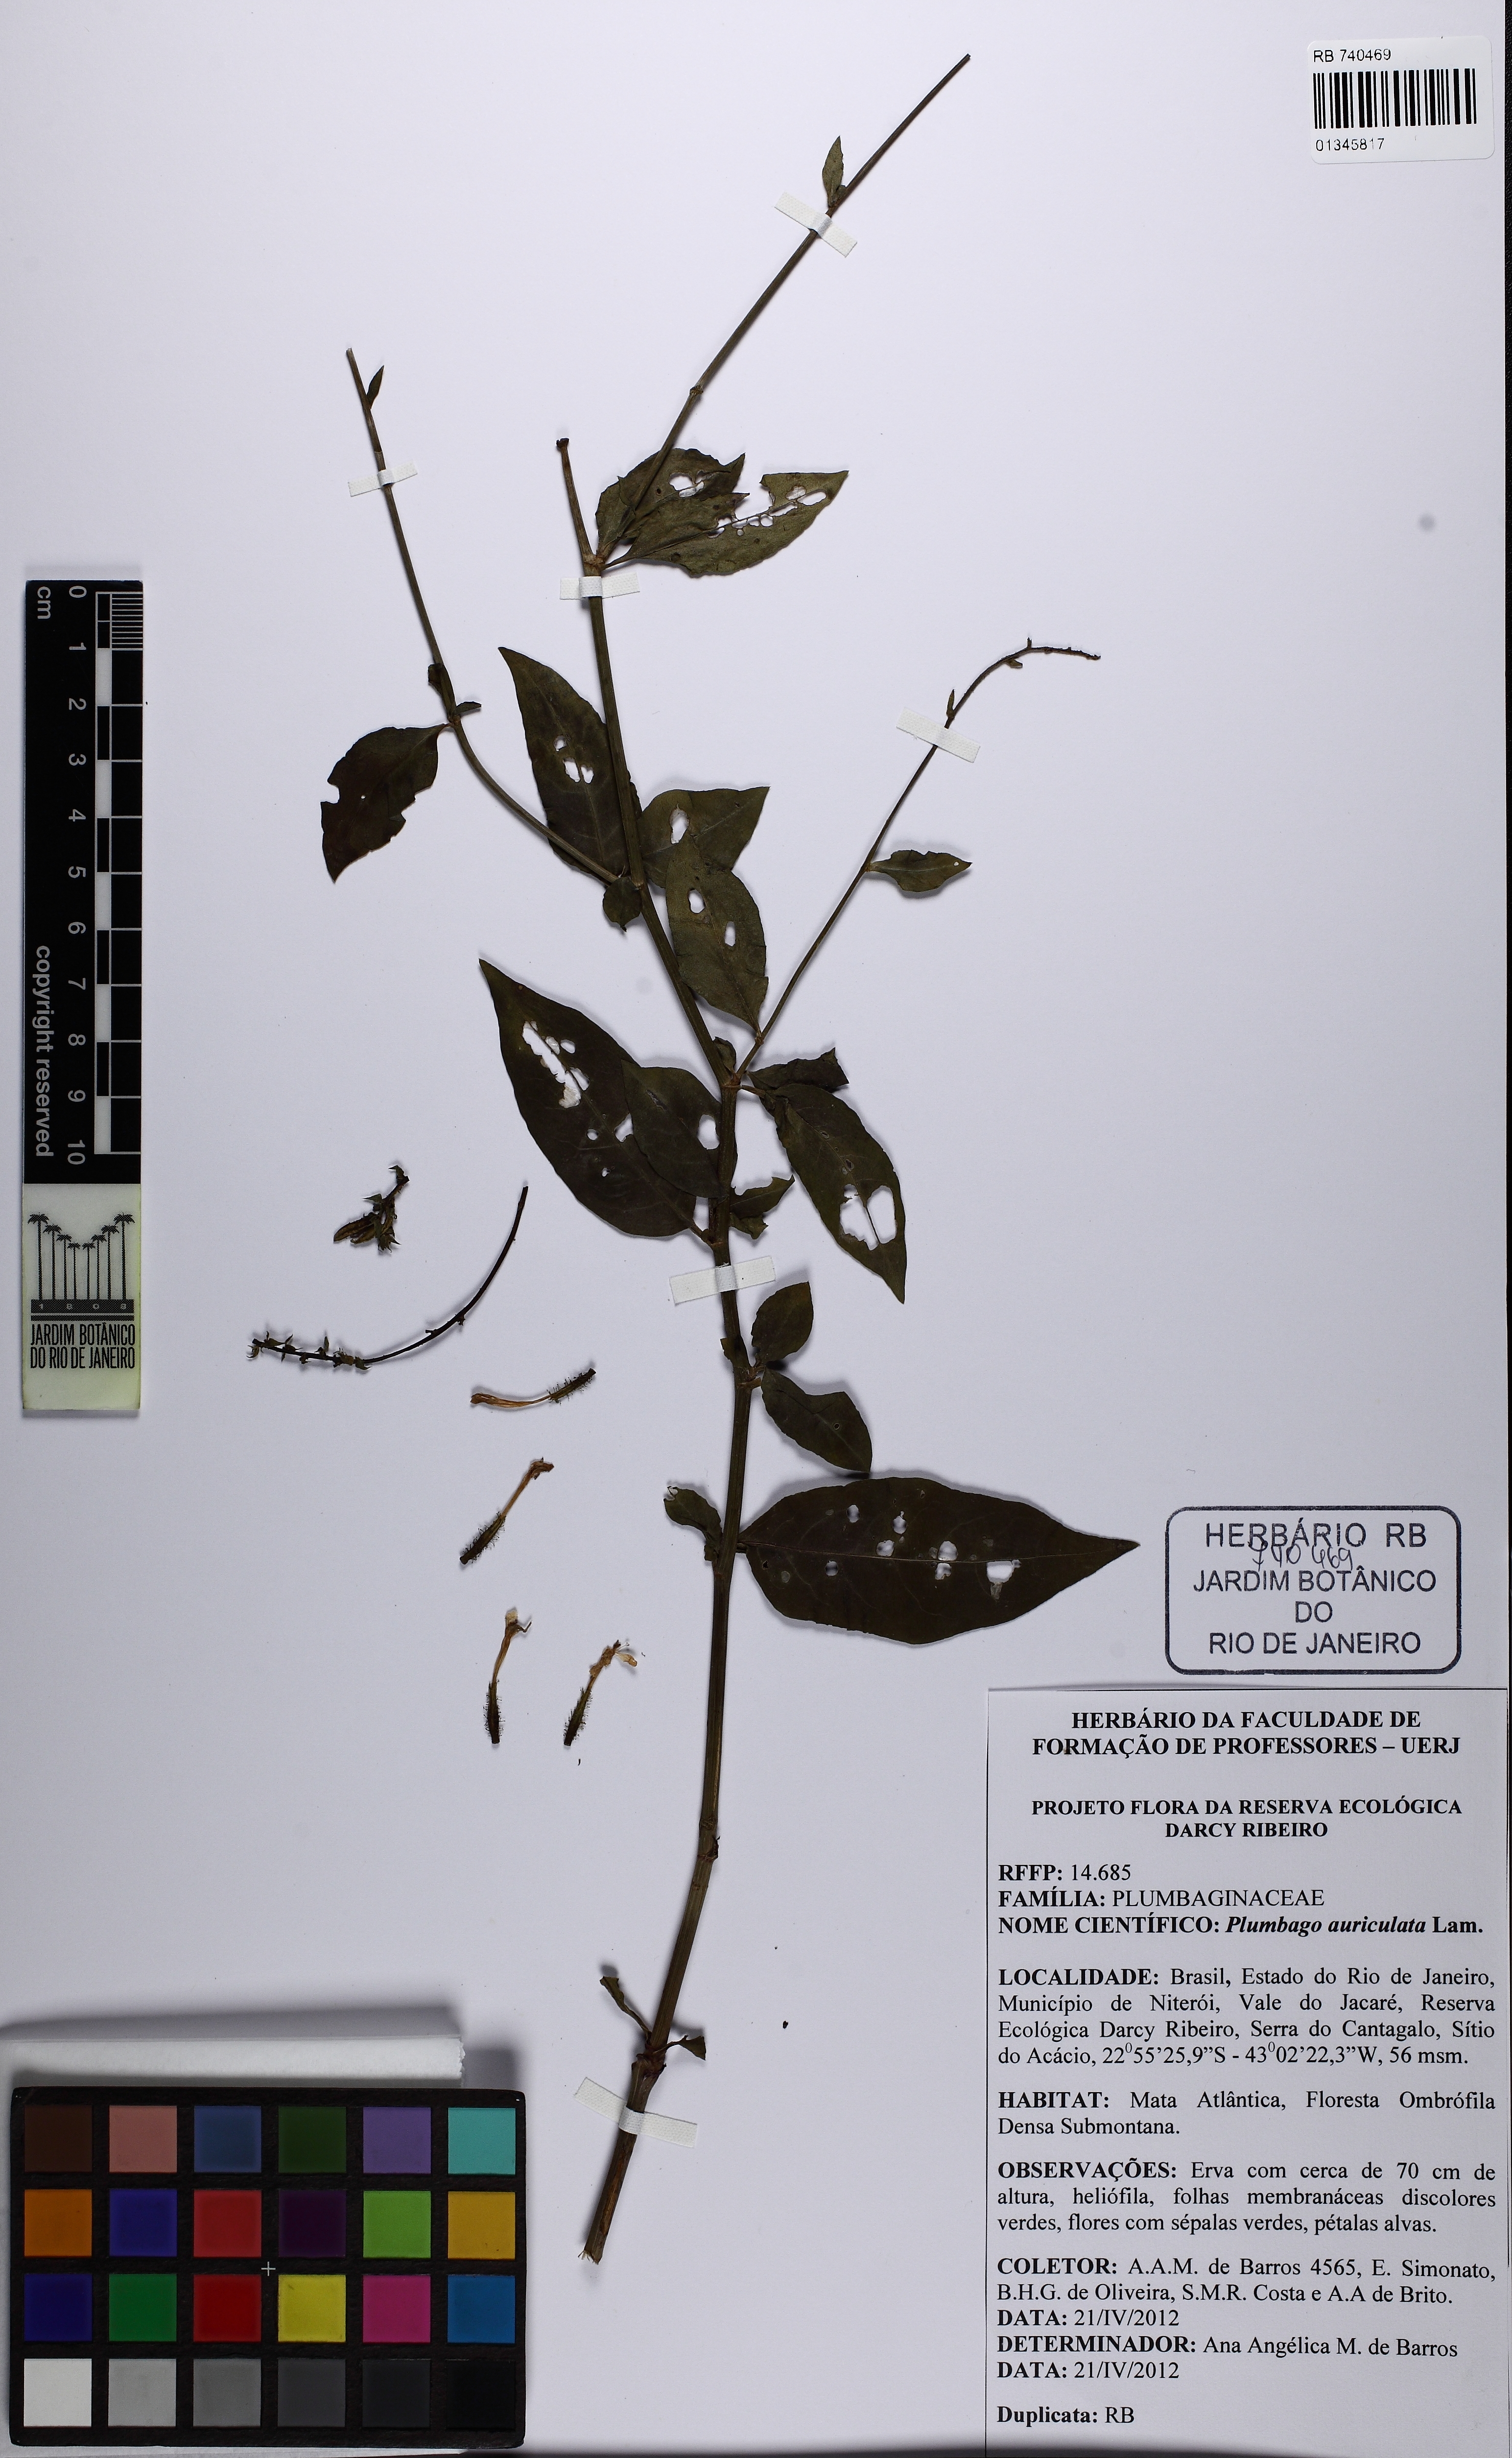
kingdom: Plantae
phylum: Tracheophyta
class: Magnoliopsida
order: Caryophyllales
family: Plumbaginaceae
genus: Plumbago
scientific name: Plumbago auriculata
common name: Cape leadwort
